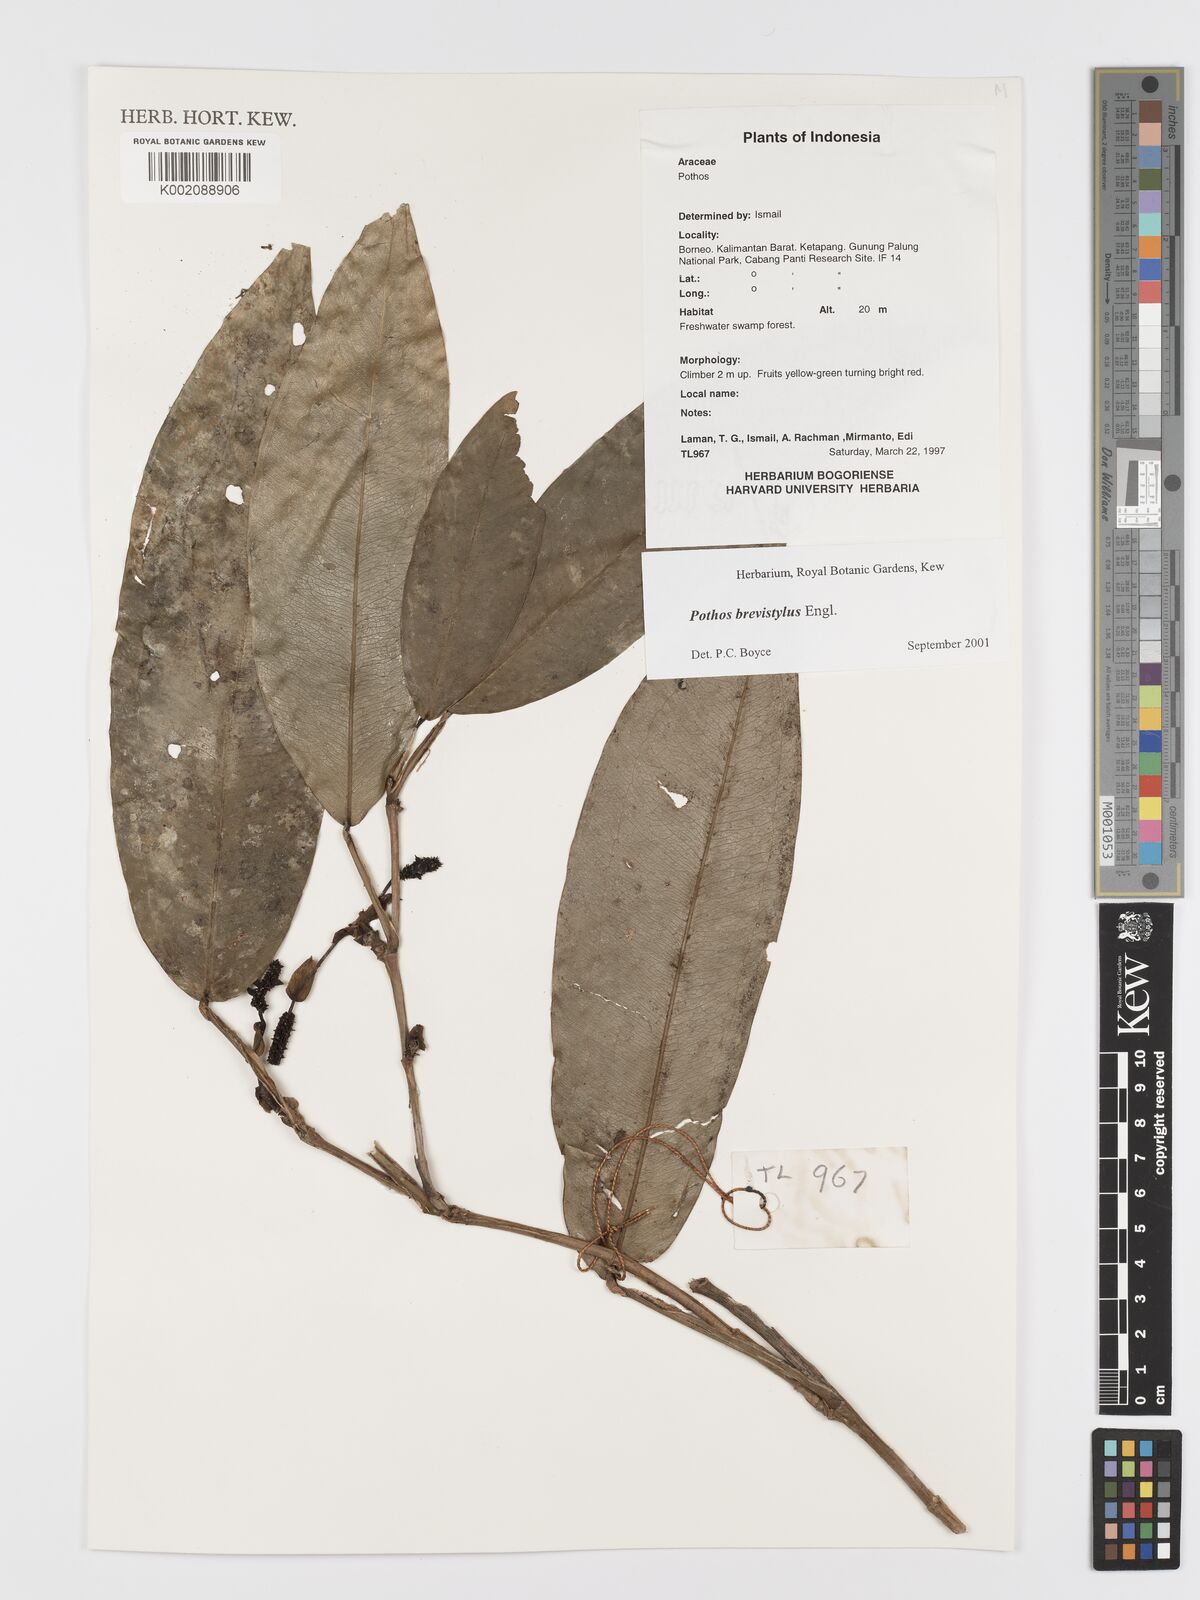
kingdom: Plantae
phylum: Tracheophyta
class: Liliopsida
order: Alismatales
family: Araceae
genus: Pothos
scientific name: Pothos brevistylus
